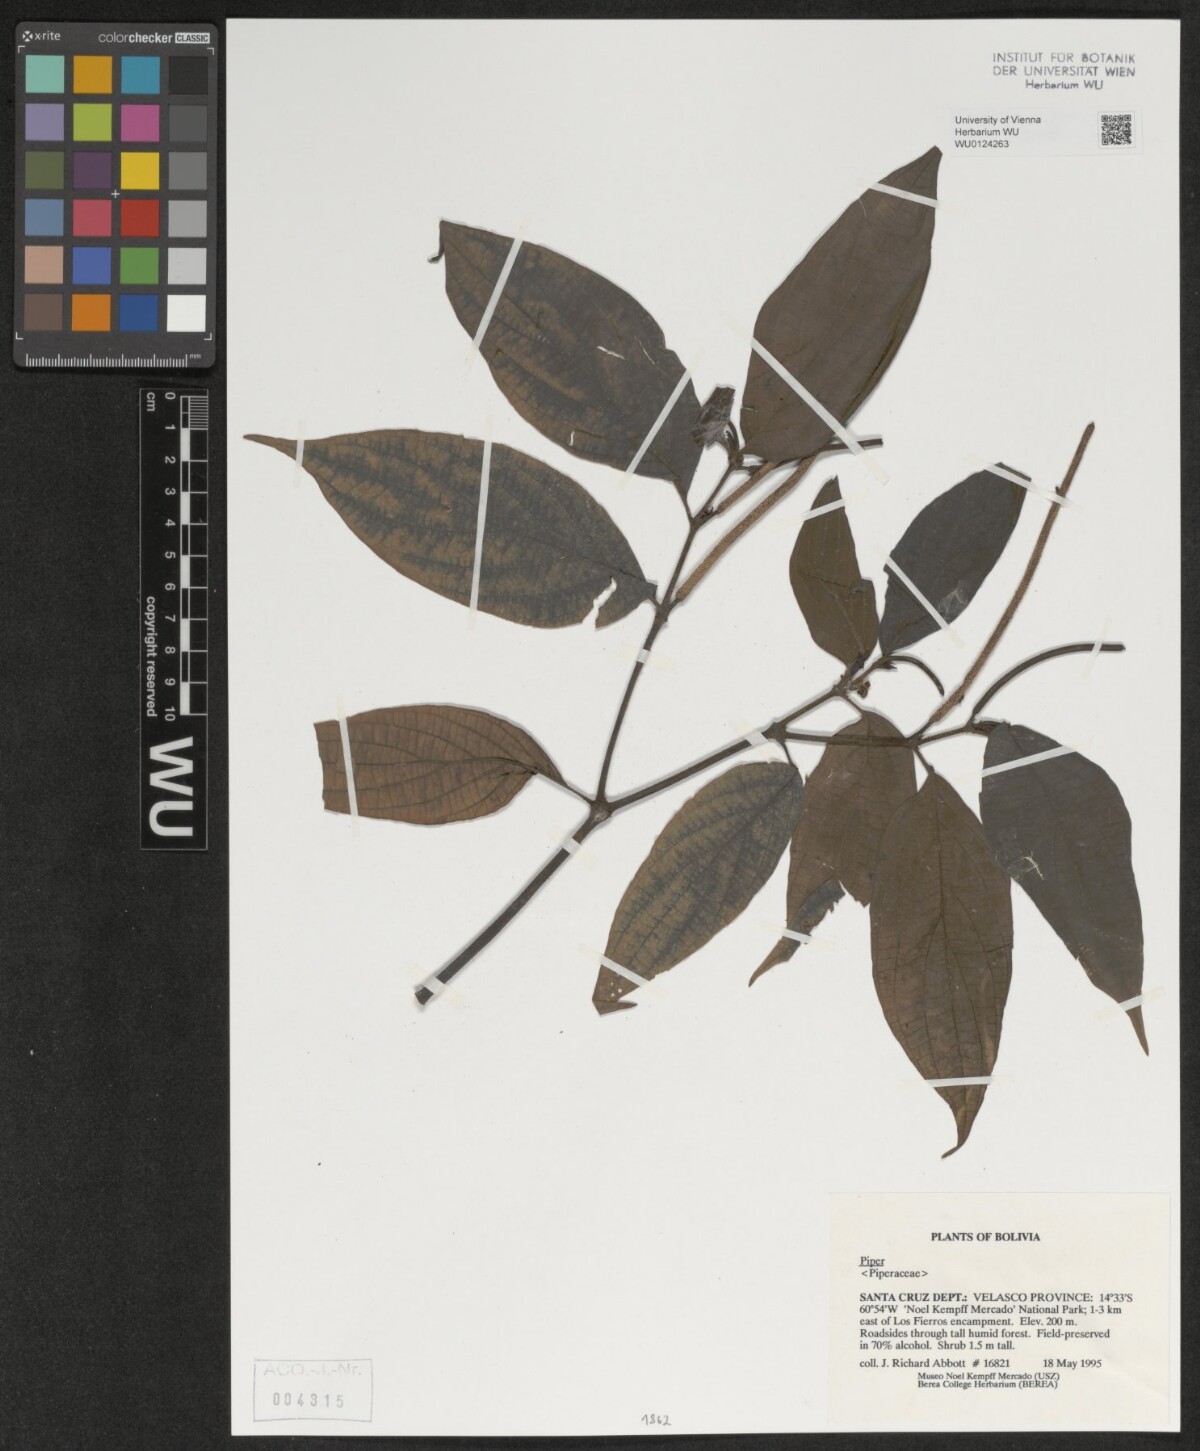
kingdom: Plantae
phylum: Tracheophyta
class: Magnoliopsida
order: Piperales
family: Piperaceae
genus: Piper
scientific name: Piper
